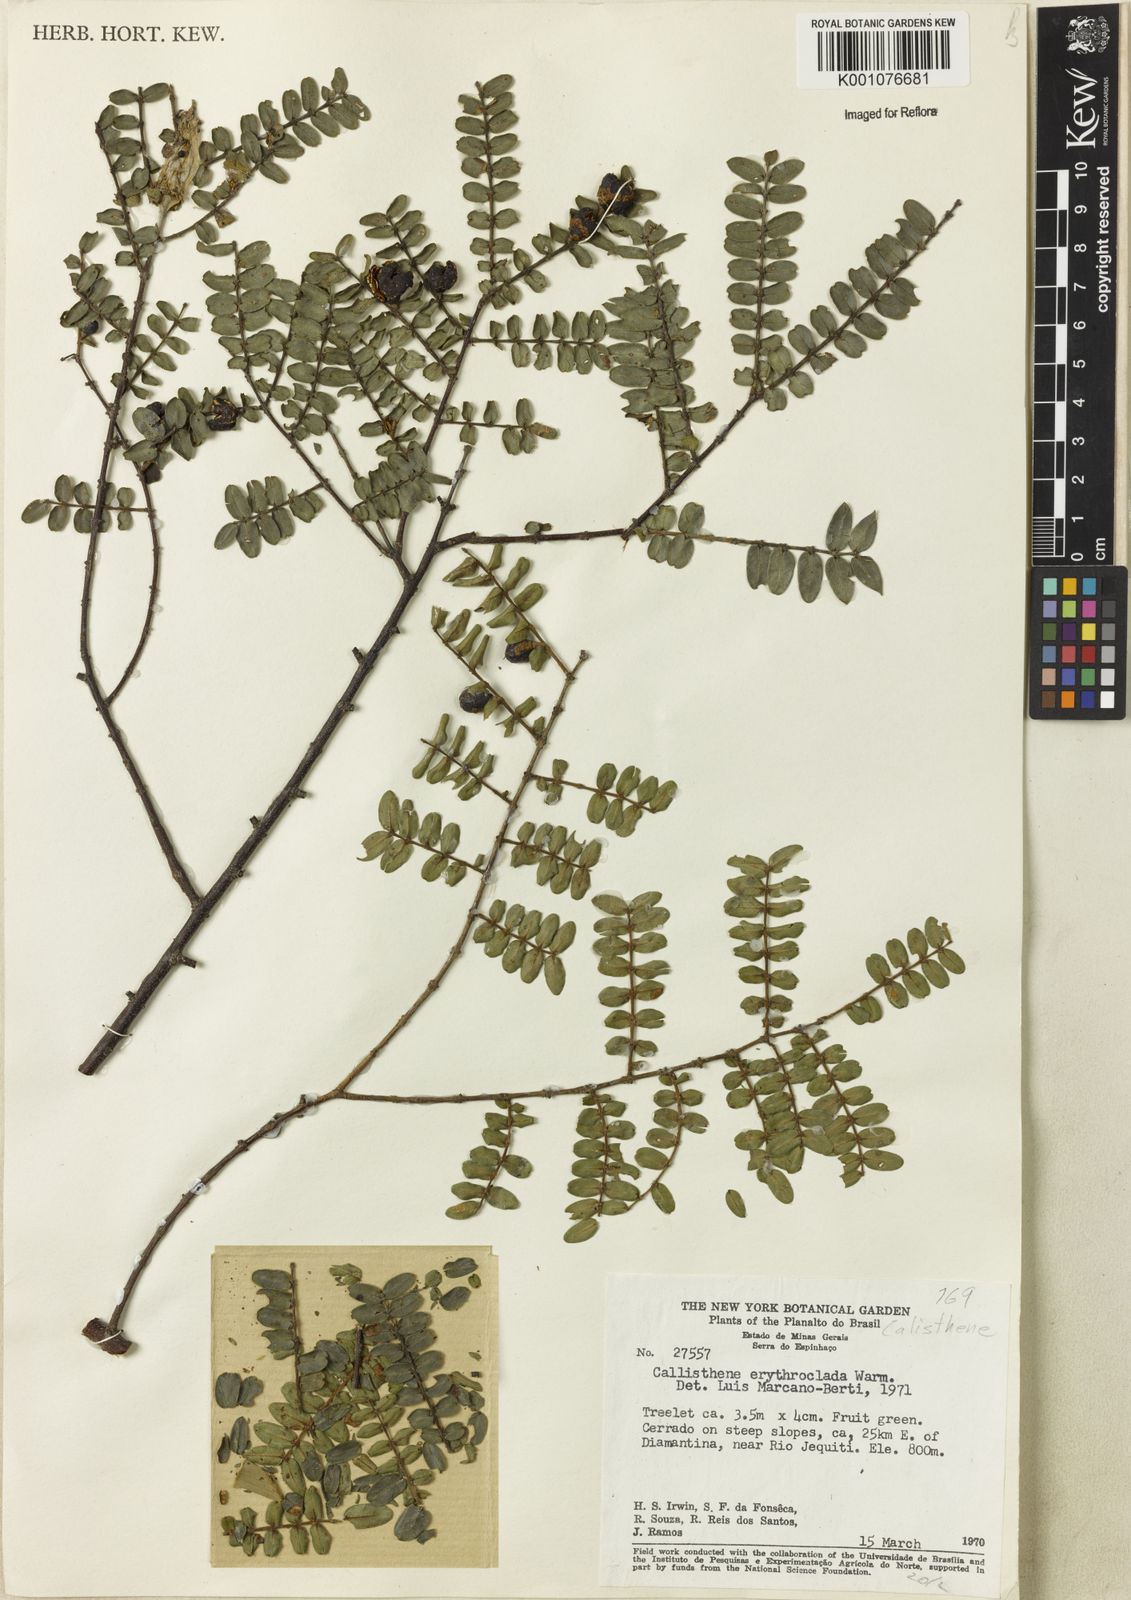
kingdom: Plantae
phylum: Tracheophyta
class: Magnoliopsida
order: Myrtales
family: Vochysiaceae
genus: Callisthene
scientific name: Callisthene erythroclada
